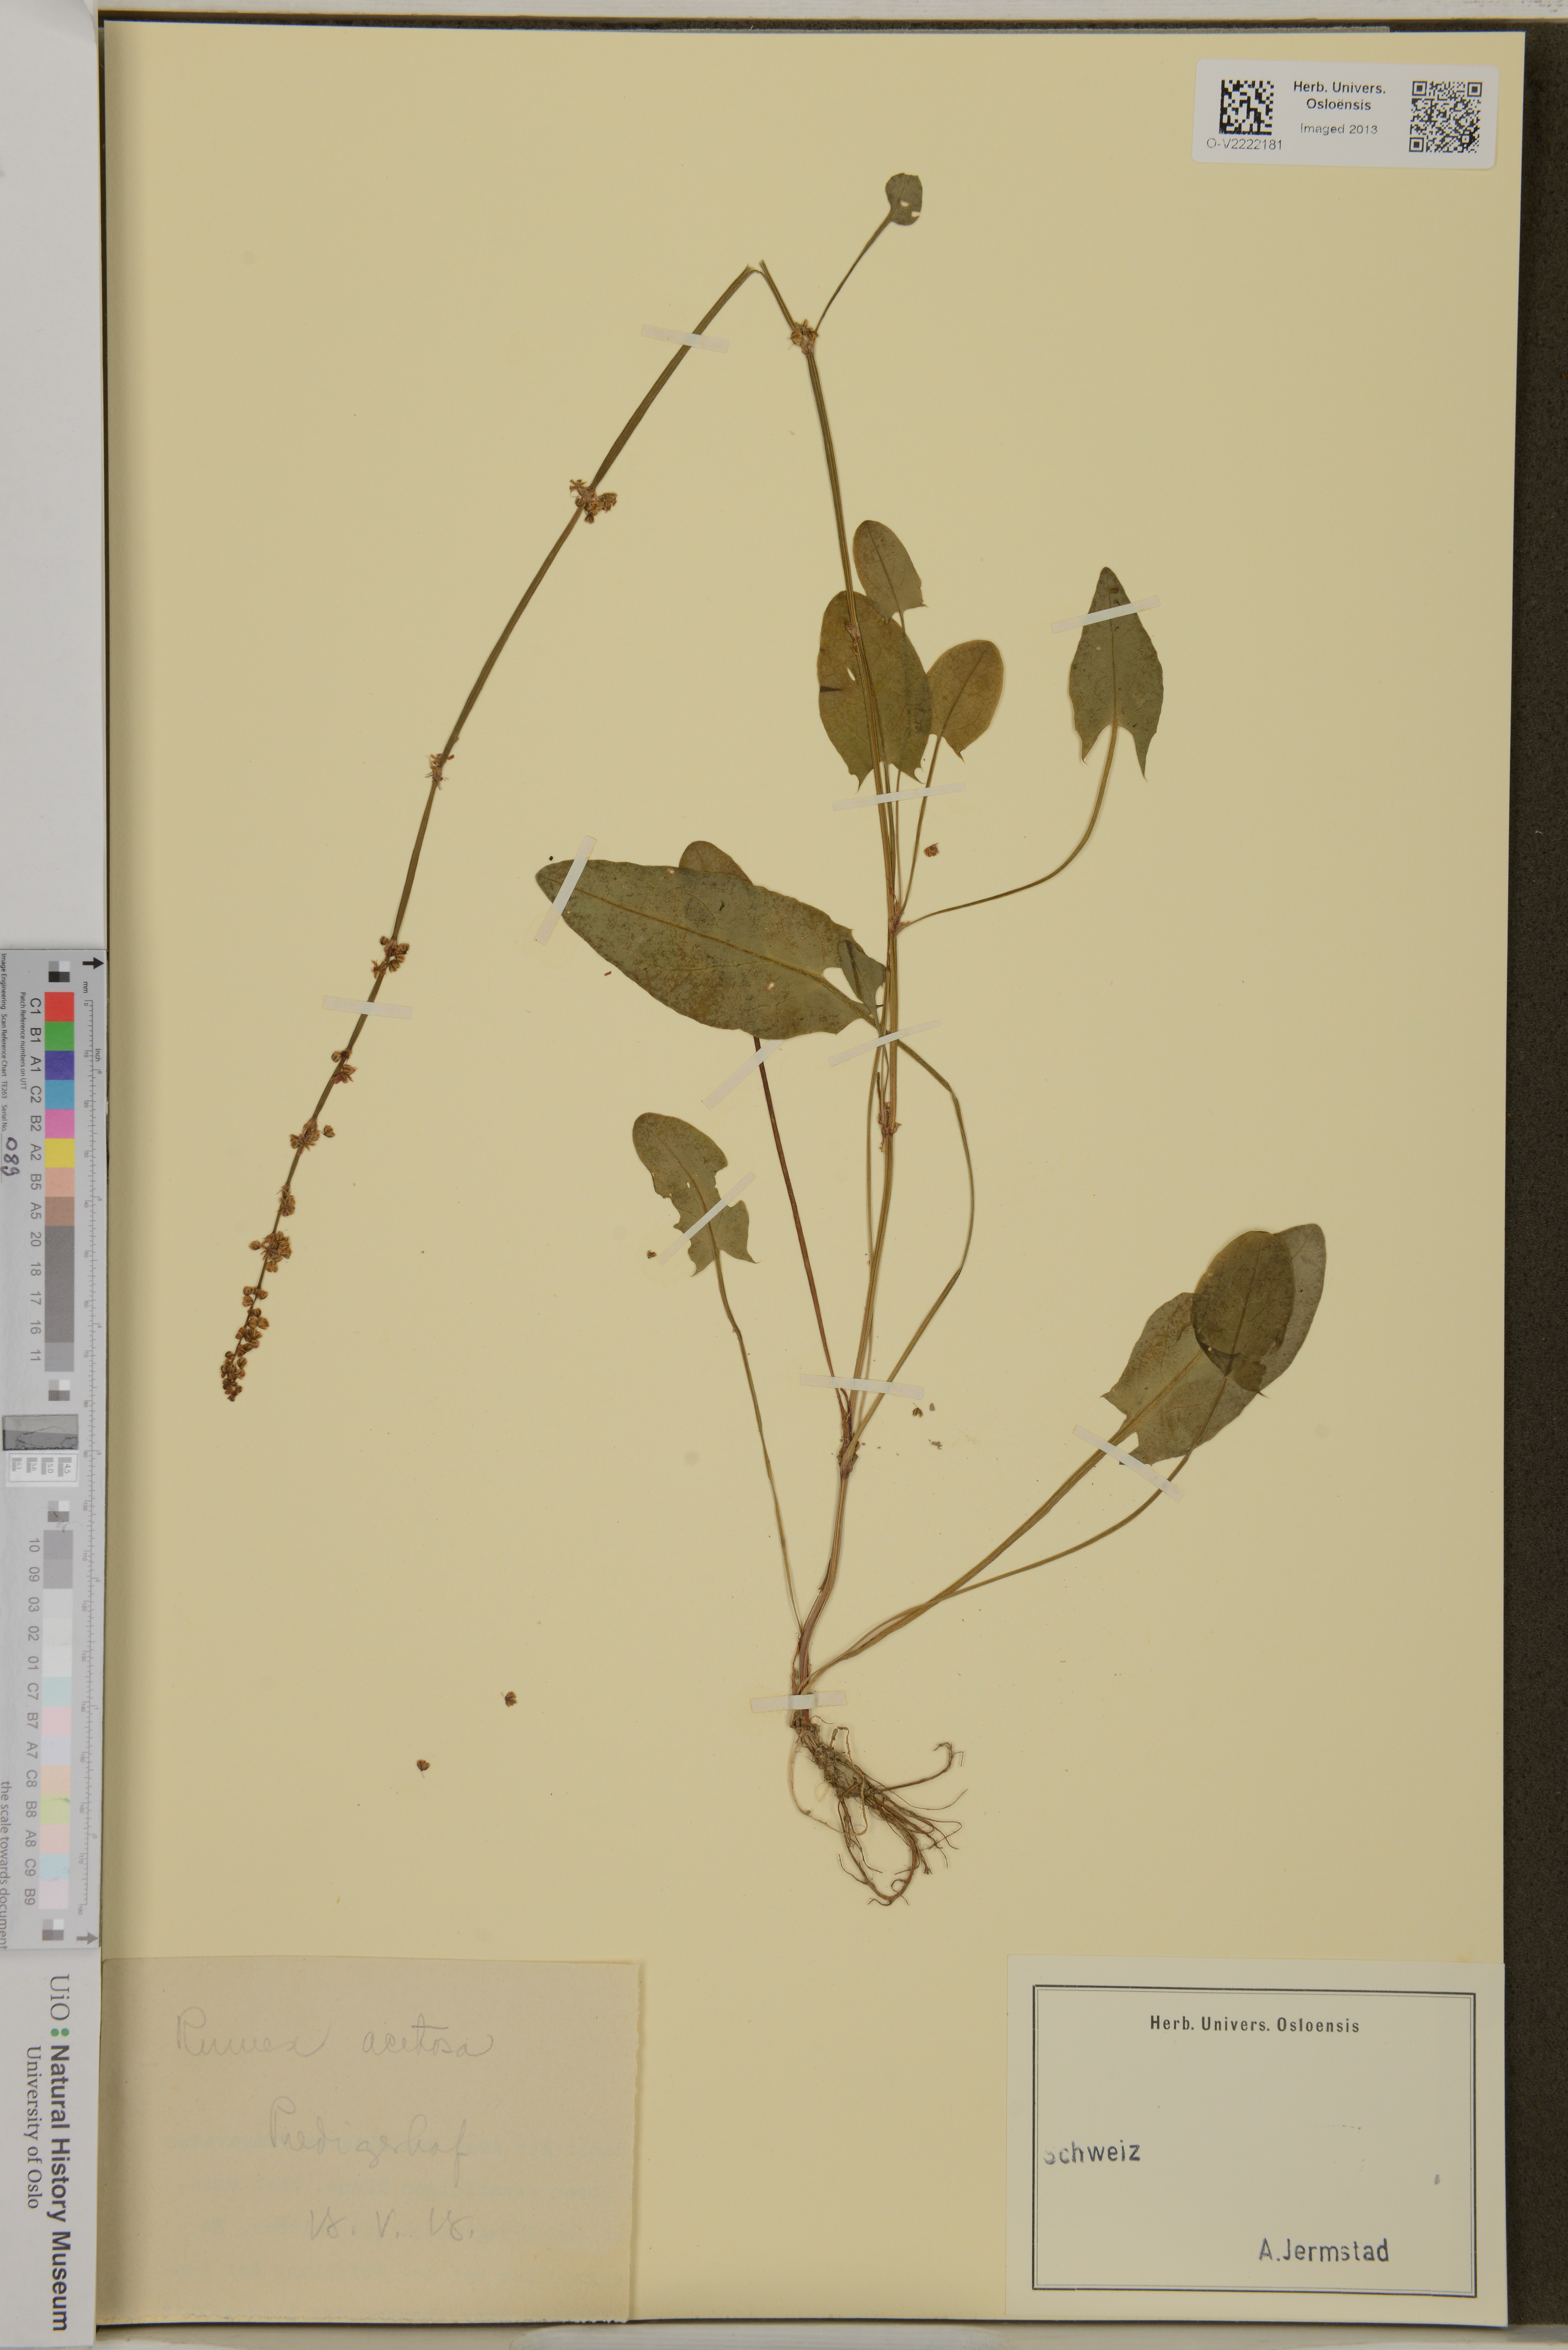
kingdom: Plantae
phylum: Tracheophyta
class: Magnoliopsida
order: Caryophyllales
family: Polygonaceae
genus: Rumex
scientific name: Rumex acetosa
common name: Garden sorrel
